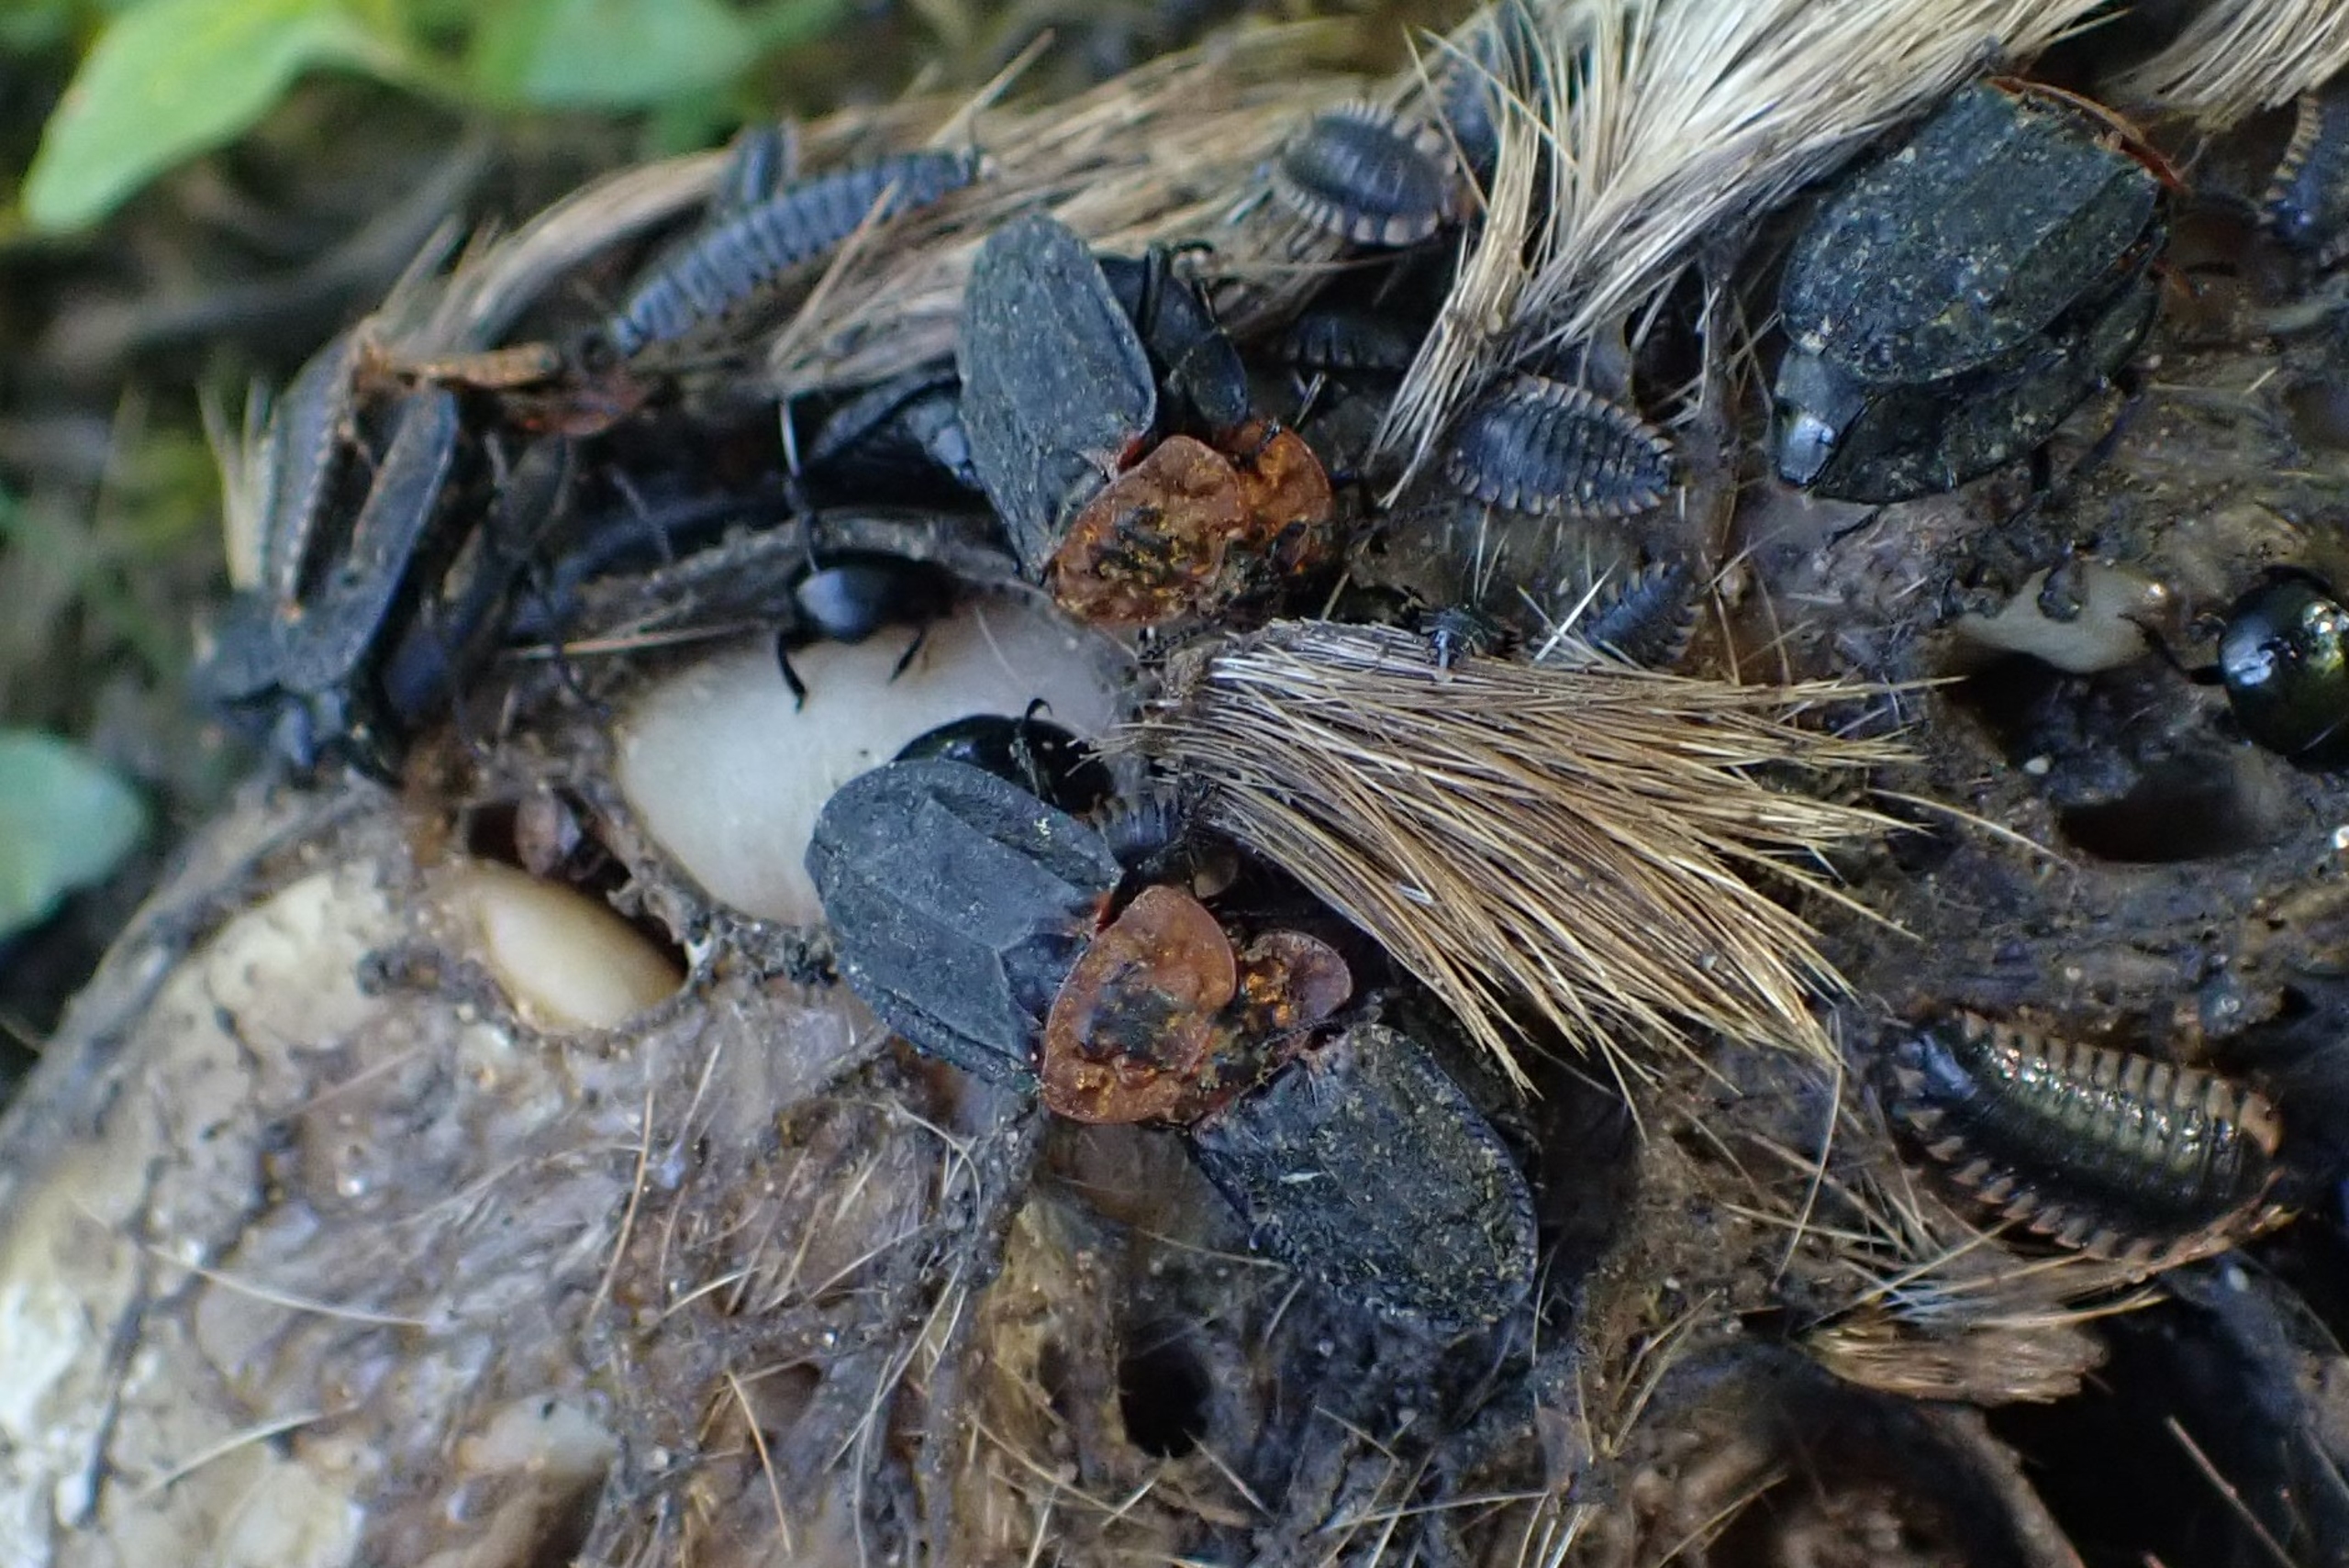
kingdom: Animalia
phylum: Arthropoda
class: Insecta
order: Coleoptera
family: Staphylinidae
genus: Oiceoptoma
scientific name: Oiceoptoma thoracicum
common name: Rødbrystet ådselbille
